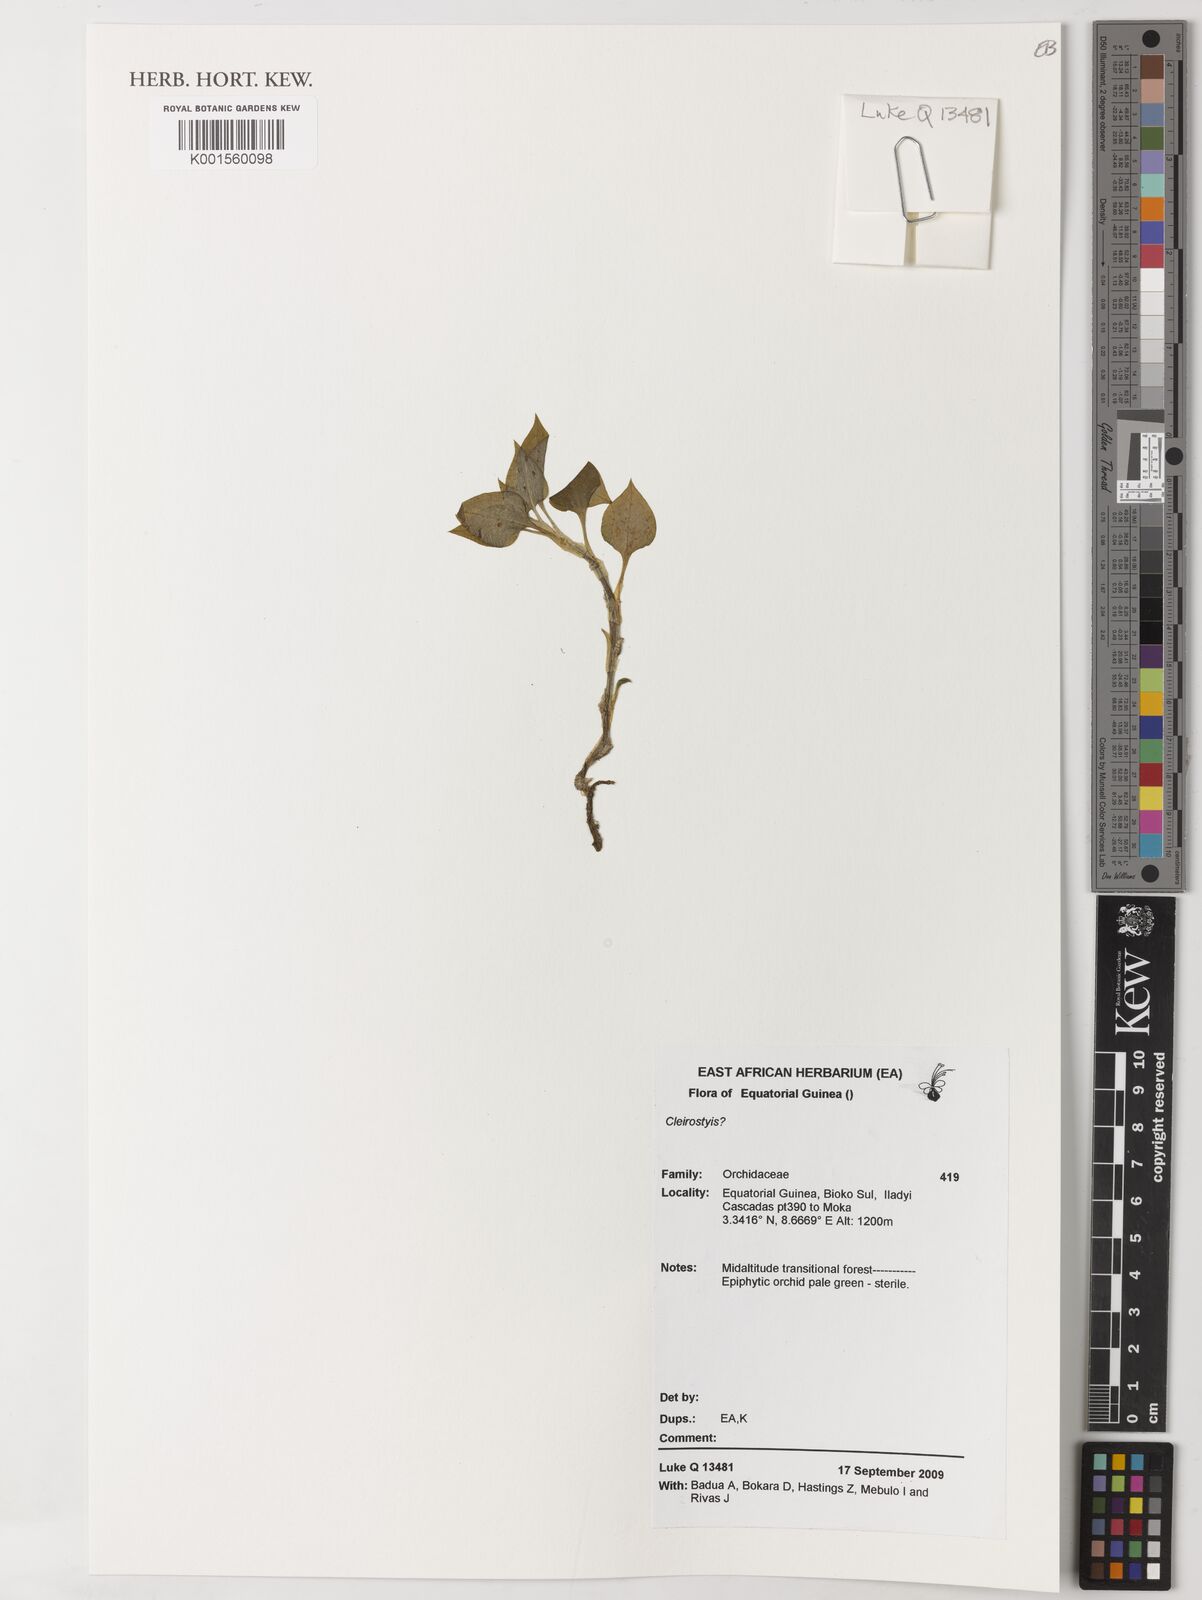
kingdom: Plantae
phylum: Tracheophyta
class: Liliopsida
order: Asparagales
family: Orchidaceae
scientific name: Orchidaceae
